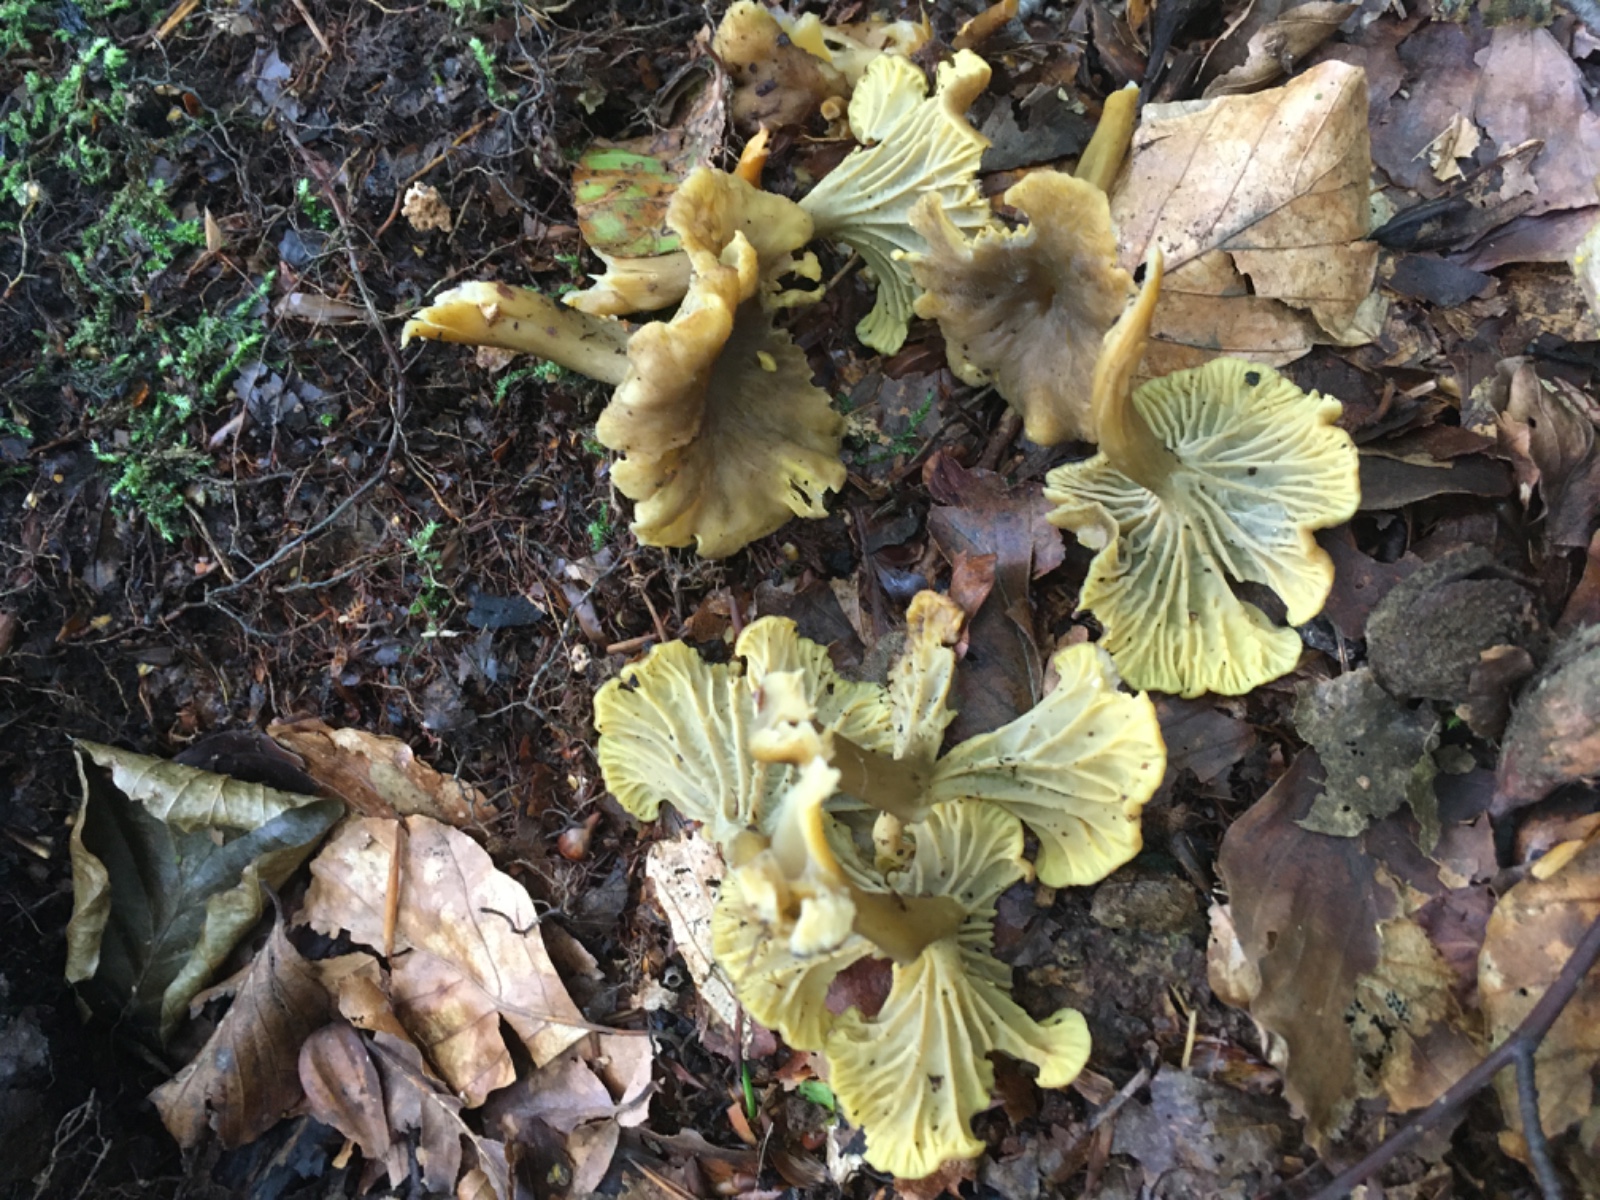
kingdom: Fungi
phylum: Basidiomycota
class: Agaricomycetes
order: Cantharellales
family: Hydnaceae
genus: Craterellus
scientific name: Craterellus tubaeformis
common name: tragt-kantarel
